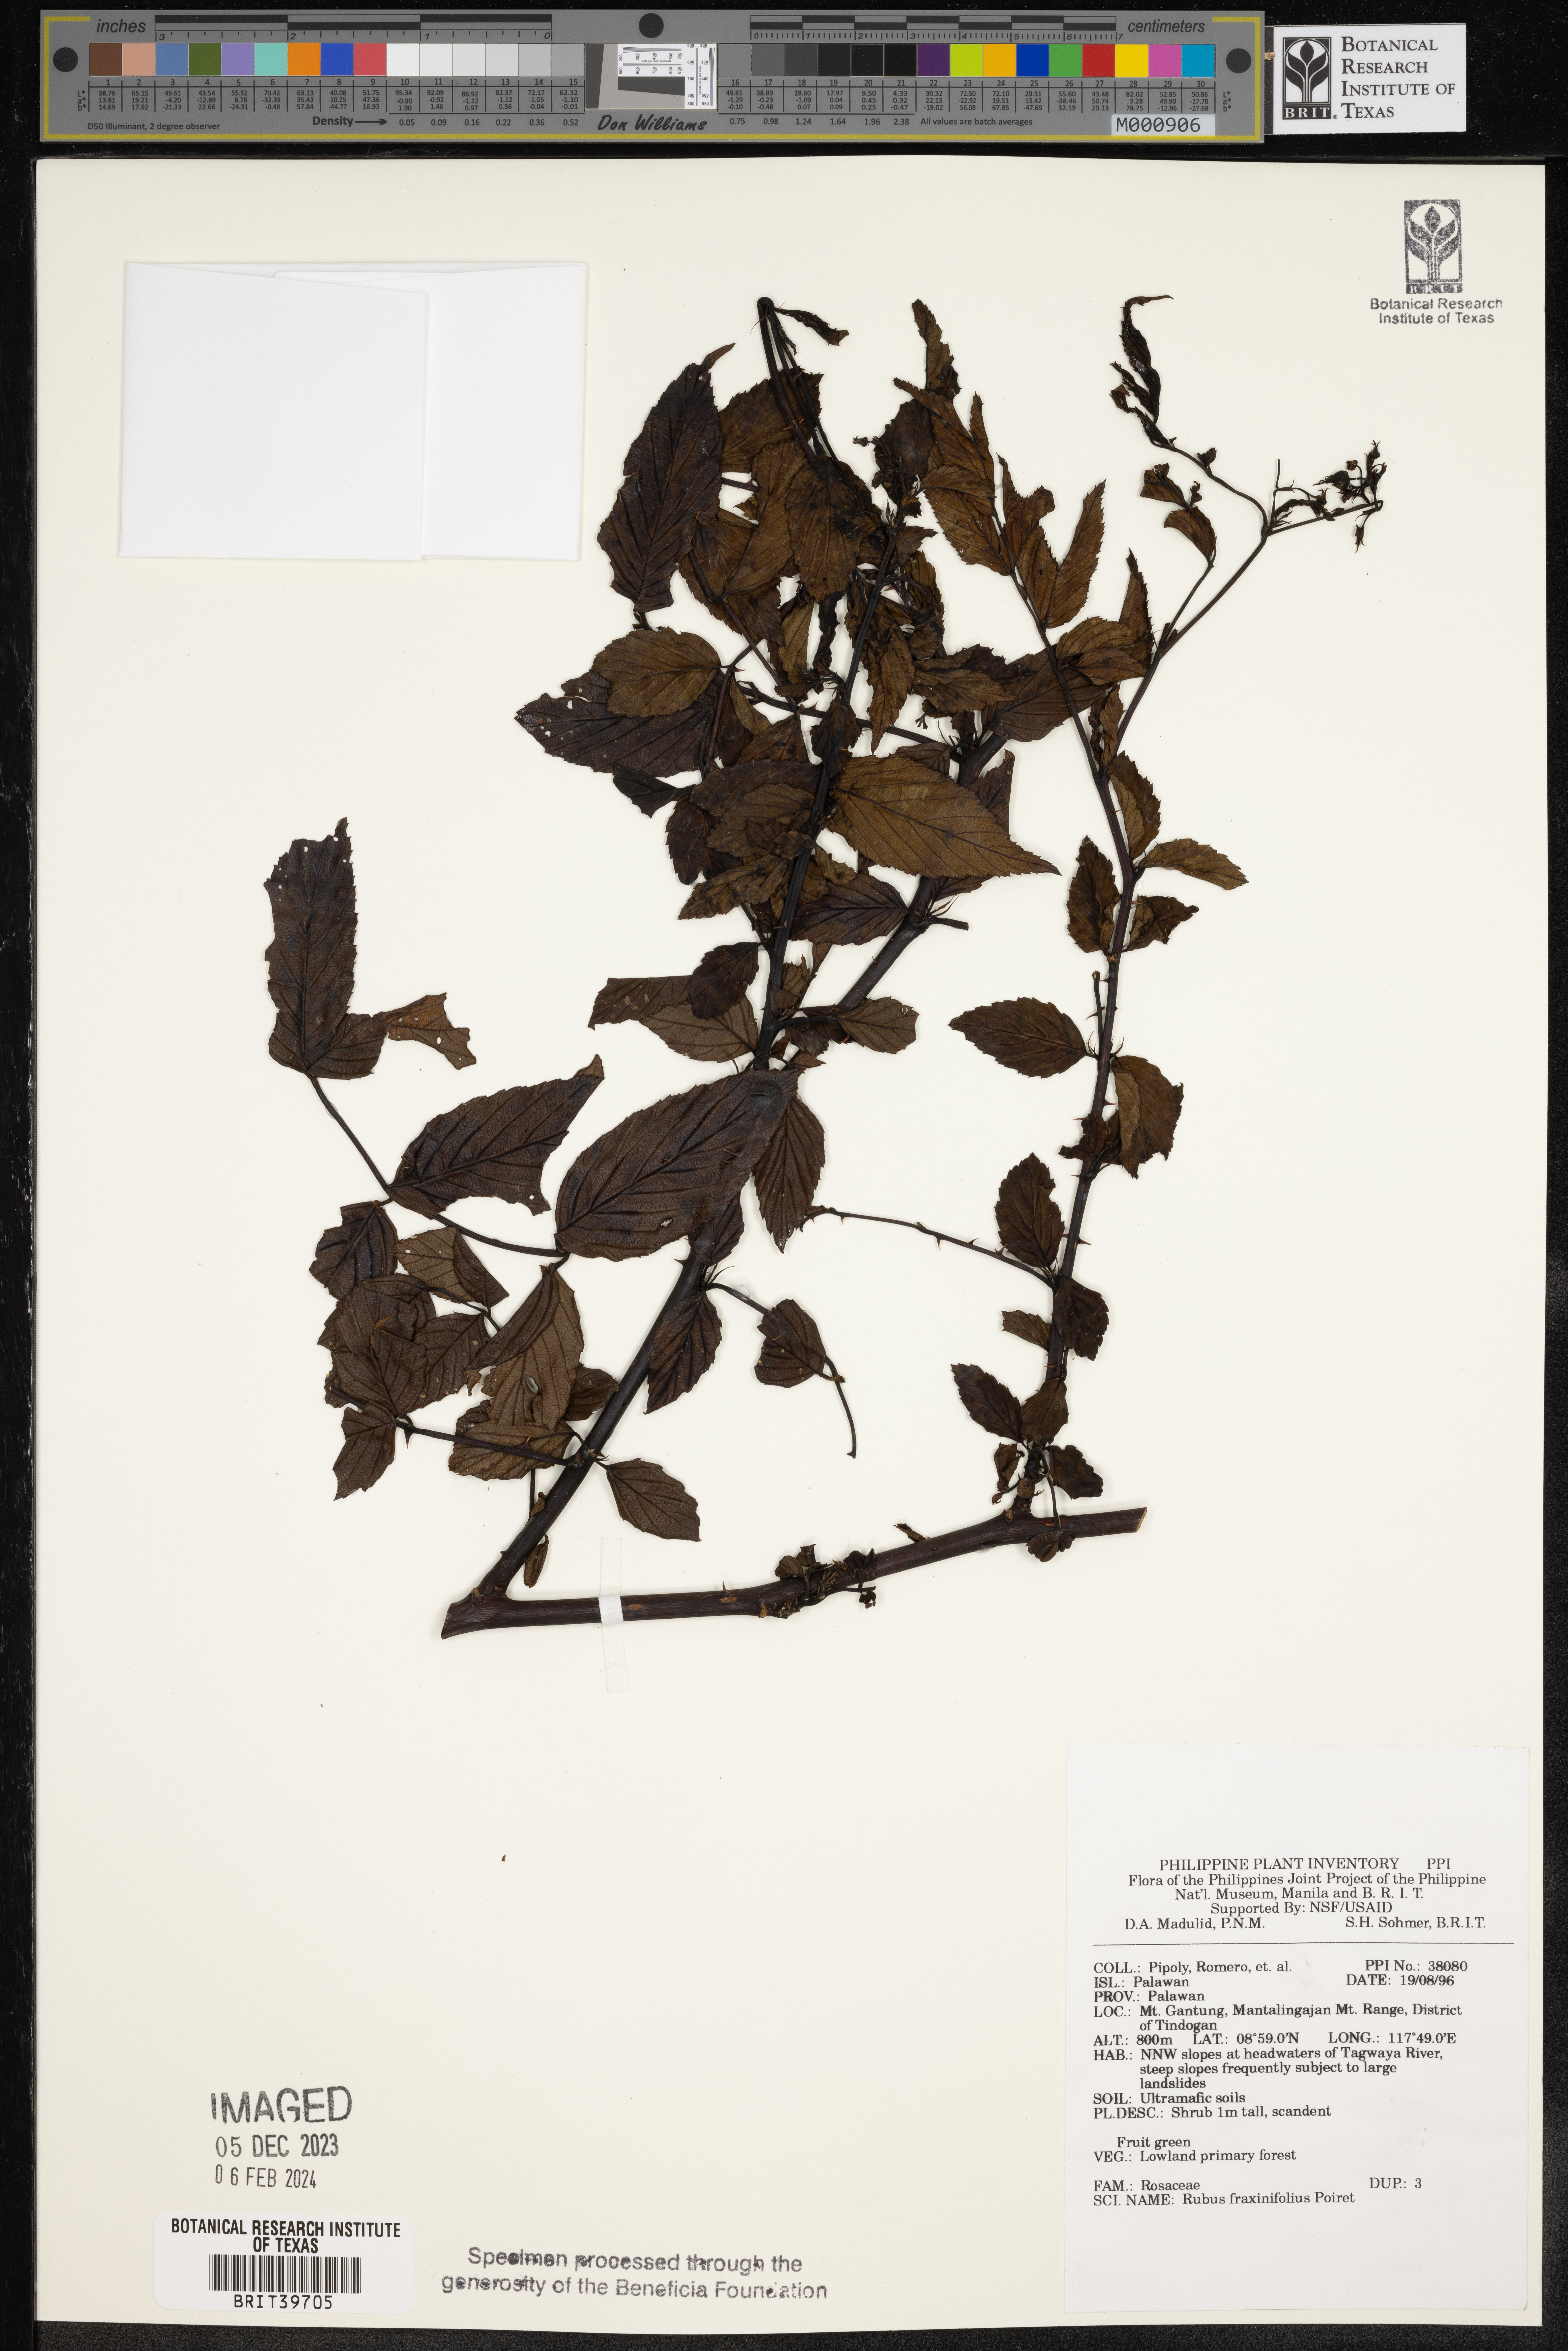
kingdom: Plantae
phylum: Tracheophyta
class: Magnoliopsida
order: Rosales
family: Rosaceae
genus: Rubus
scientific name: Rubus fraxinifolius
